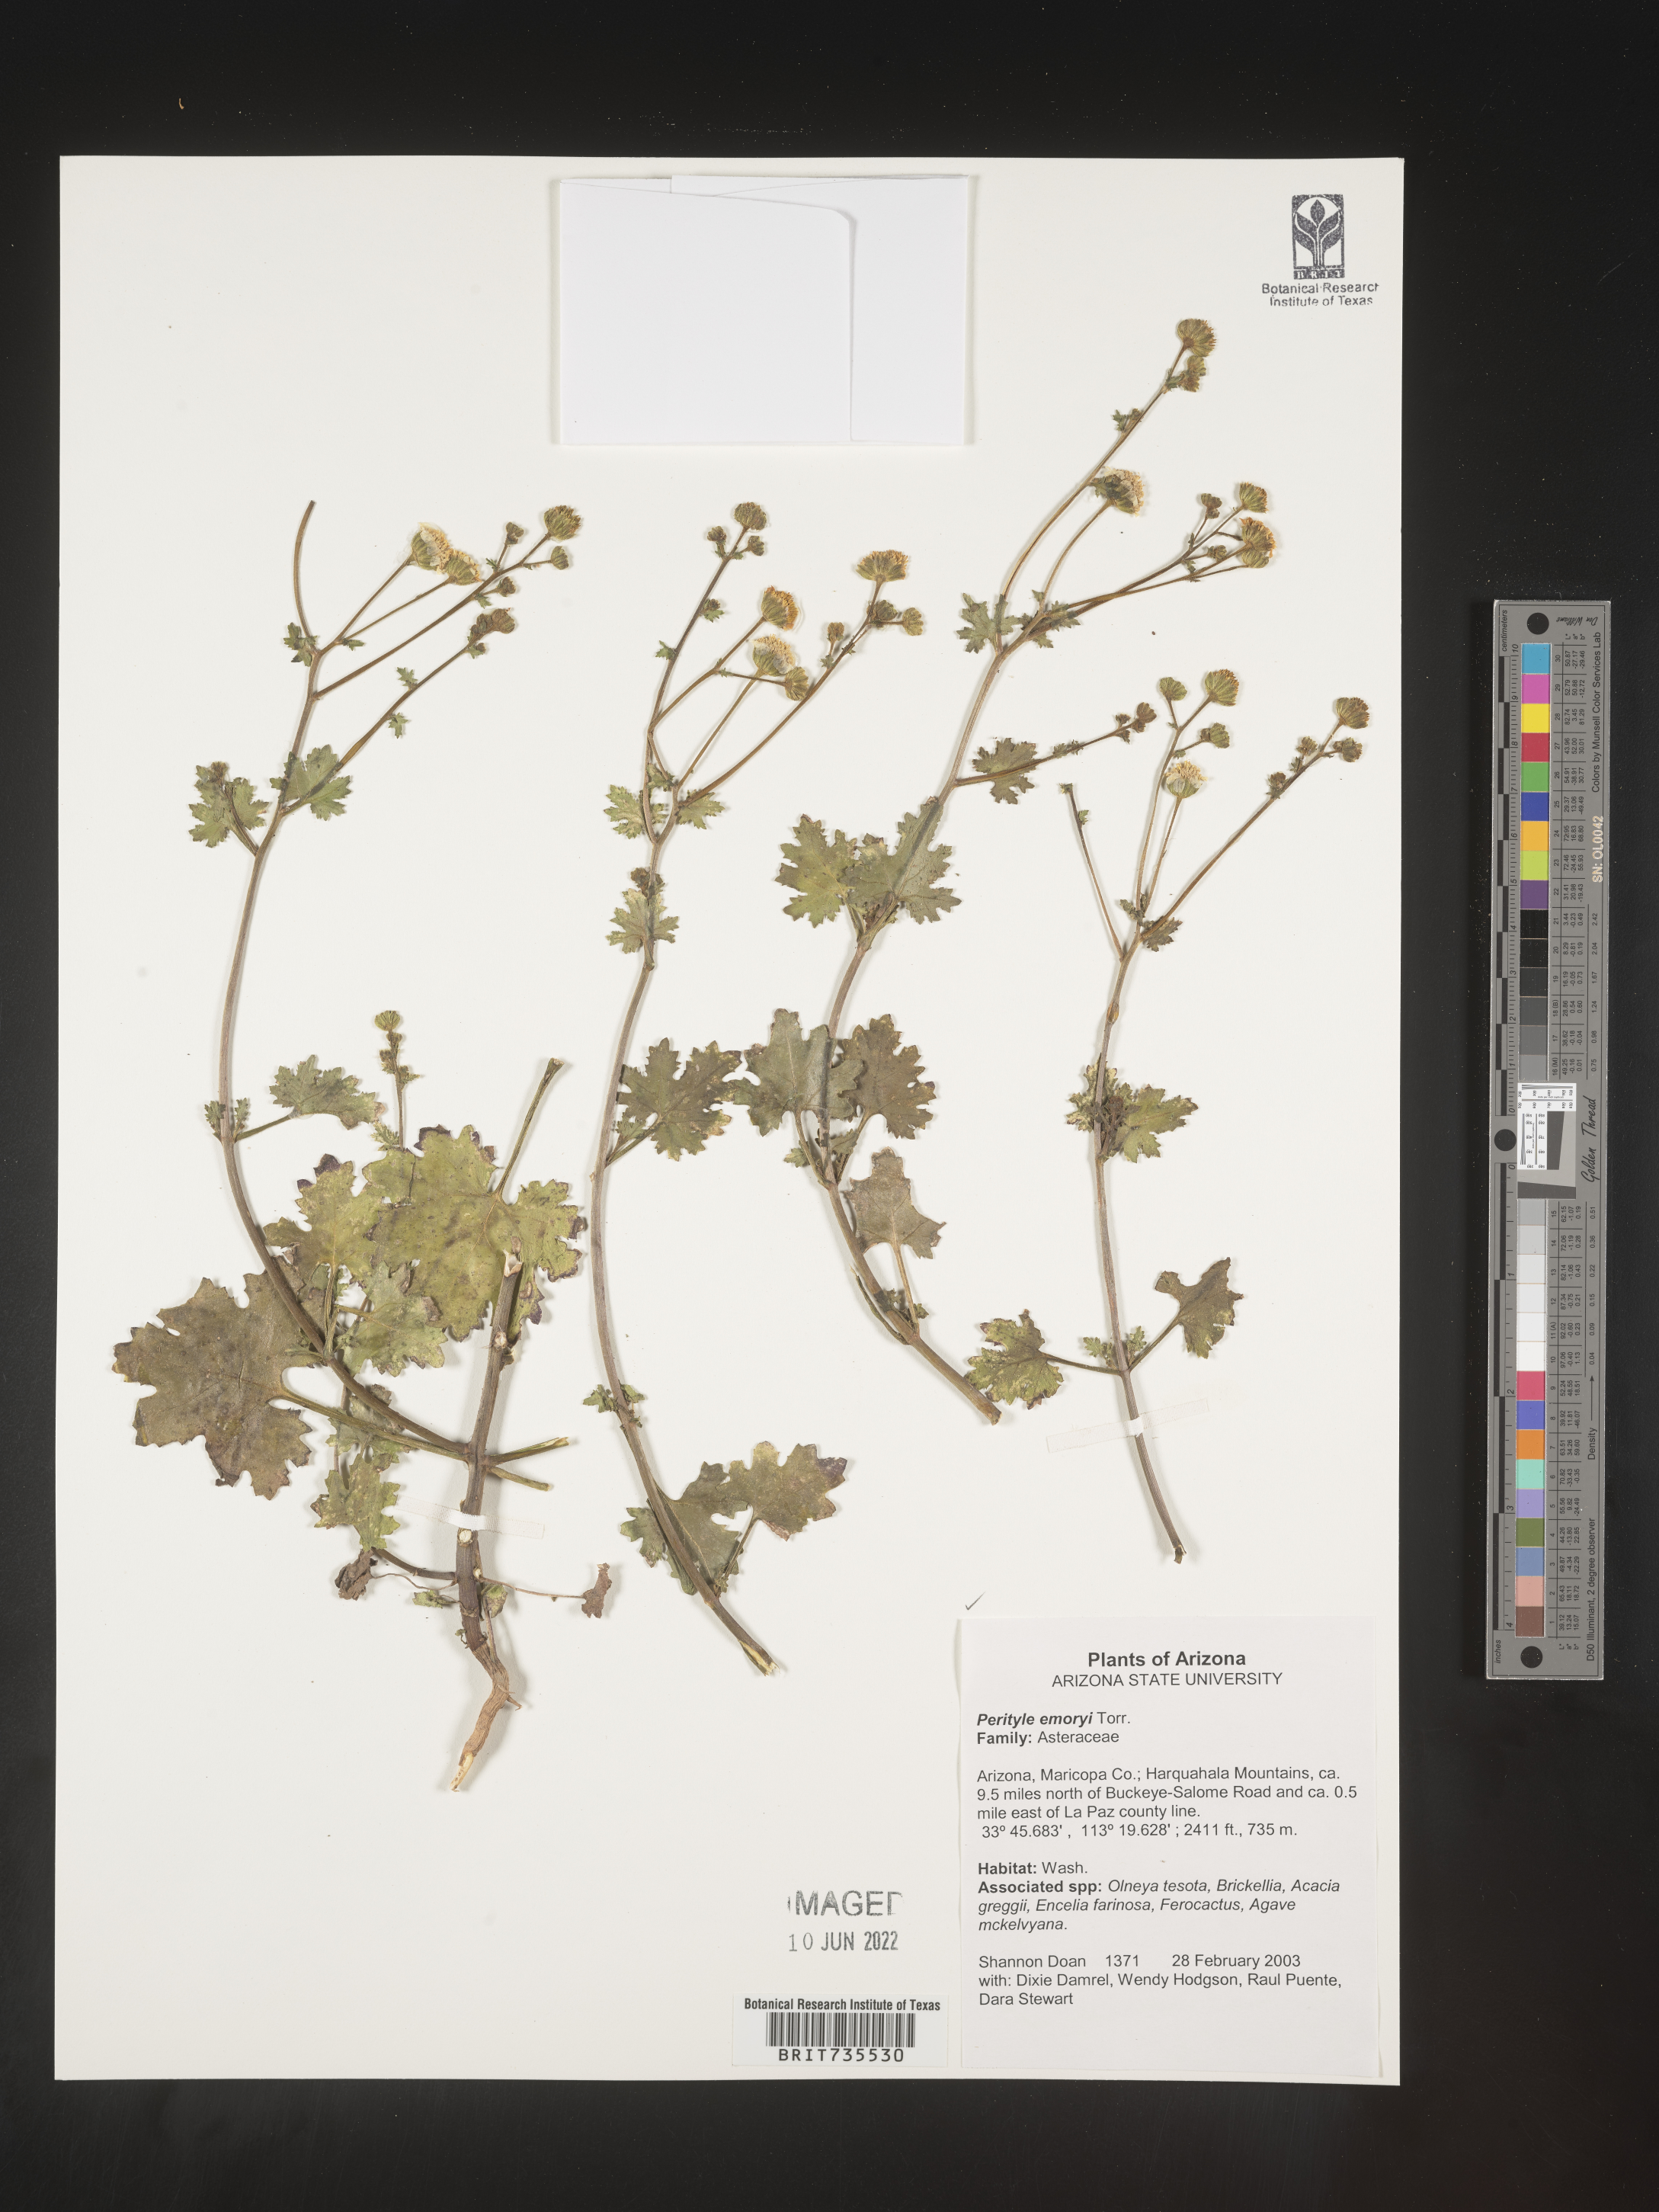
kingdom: Plantae
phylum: Tracheophyta
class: Magnoliopsida
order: Asterales
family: Asteraceae
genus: Perityle
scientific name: Perityle
